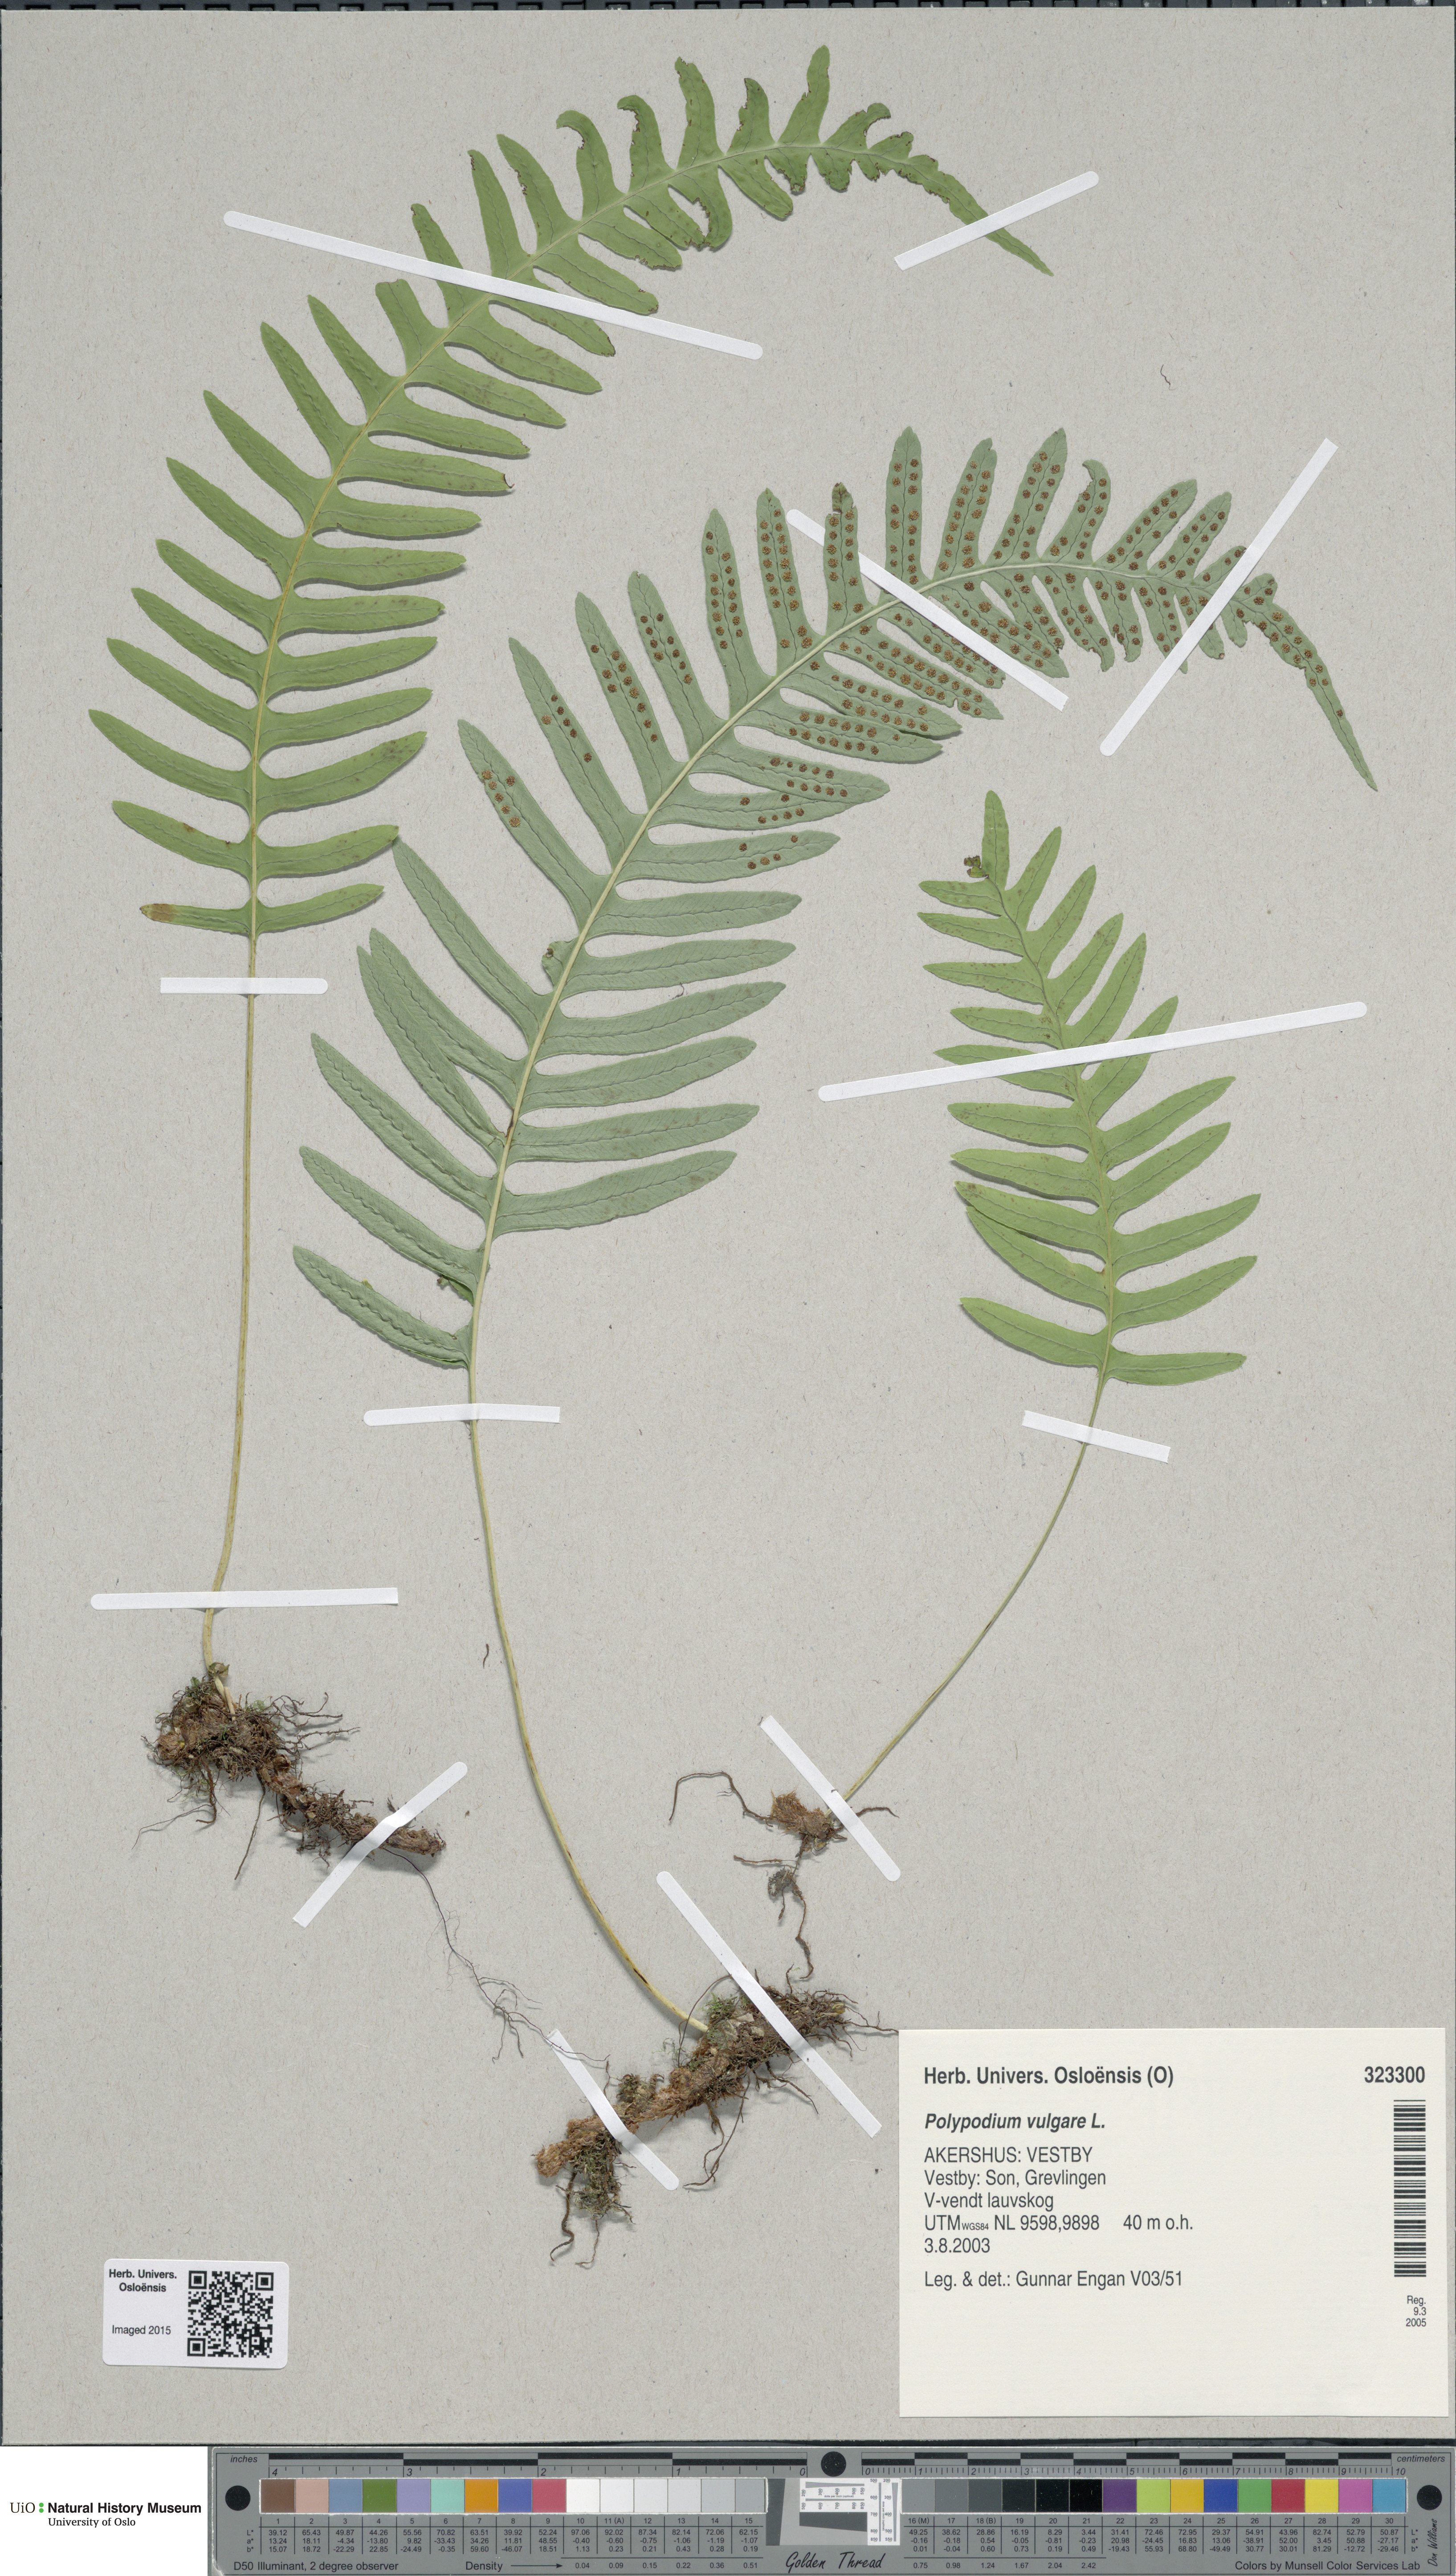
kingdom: Plantae
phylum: Tracheophyta
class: Polypodiopsida
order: Polypodiales
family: Polypodiaceae
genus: Polypodium
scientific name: Polypodium vulgare
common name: Common polypody
